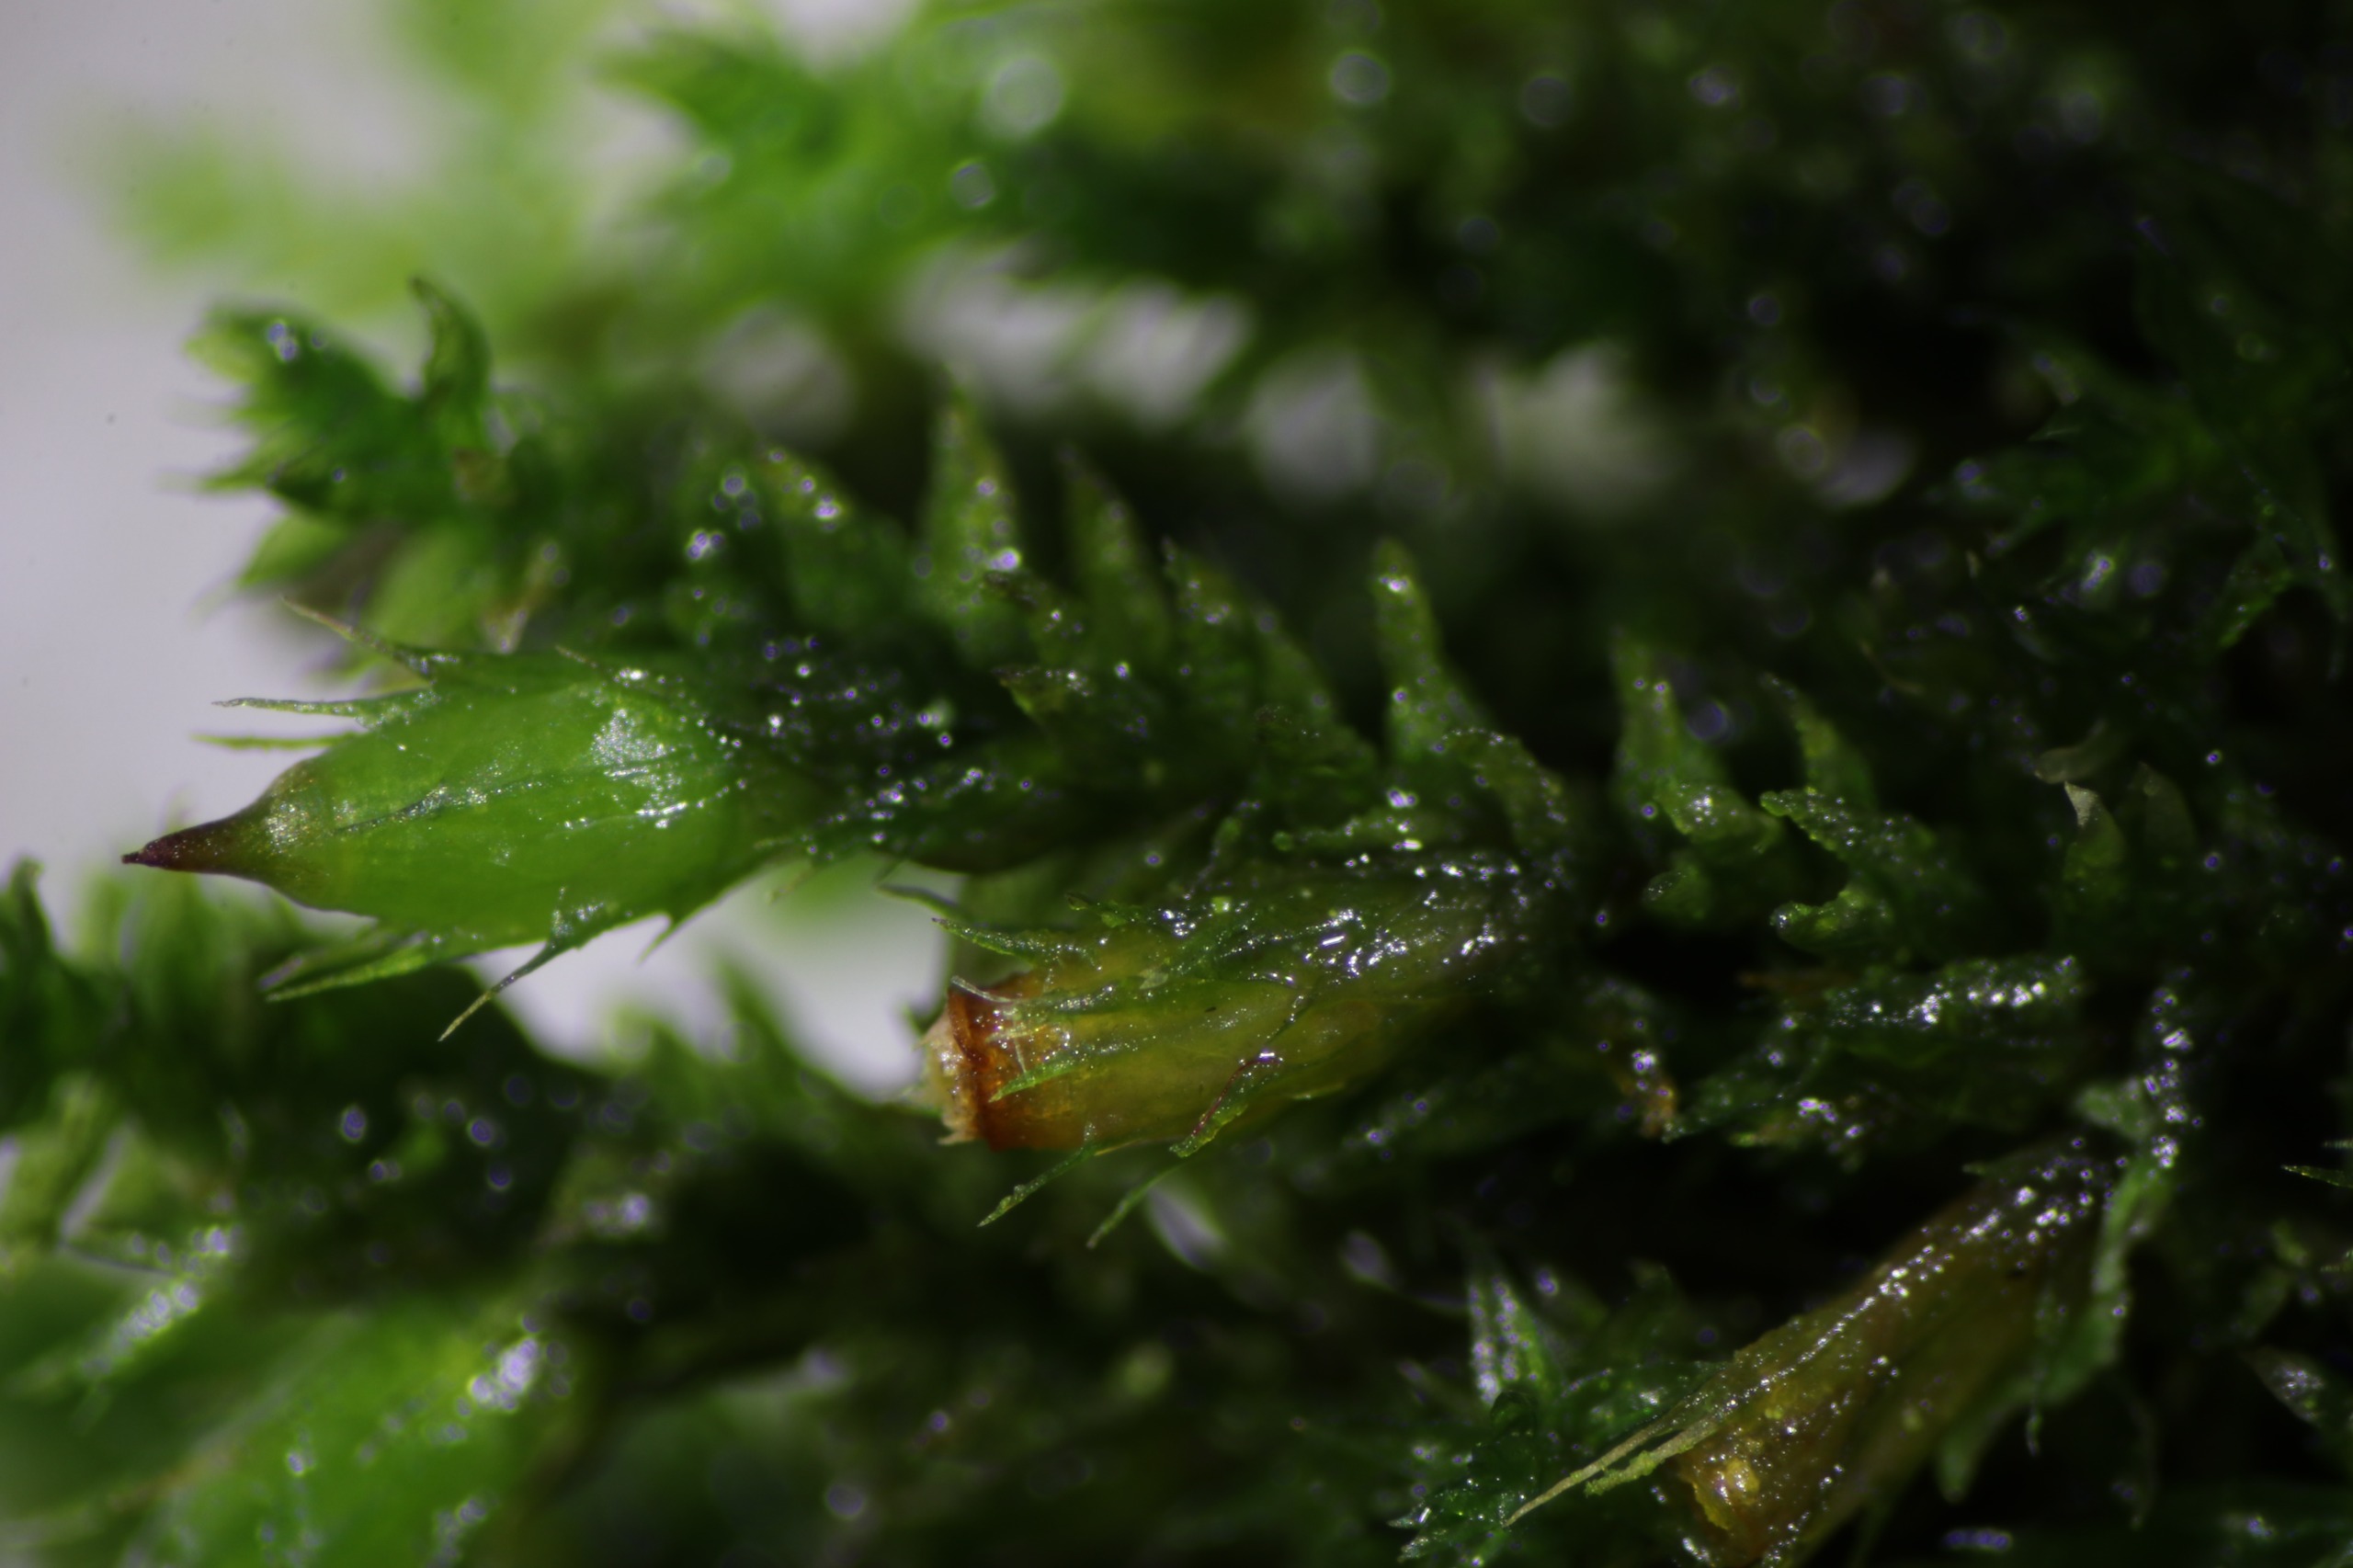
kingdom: Plantae
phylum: Bryophyta
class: Bryopsida
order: Hypnales
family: Cryphaeaceae
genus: Cryphaea
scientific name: Cryphaea heteromalla
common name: Bark-dækmos
